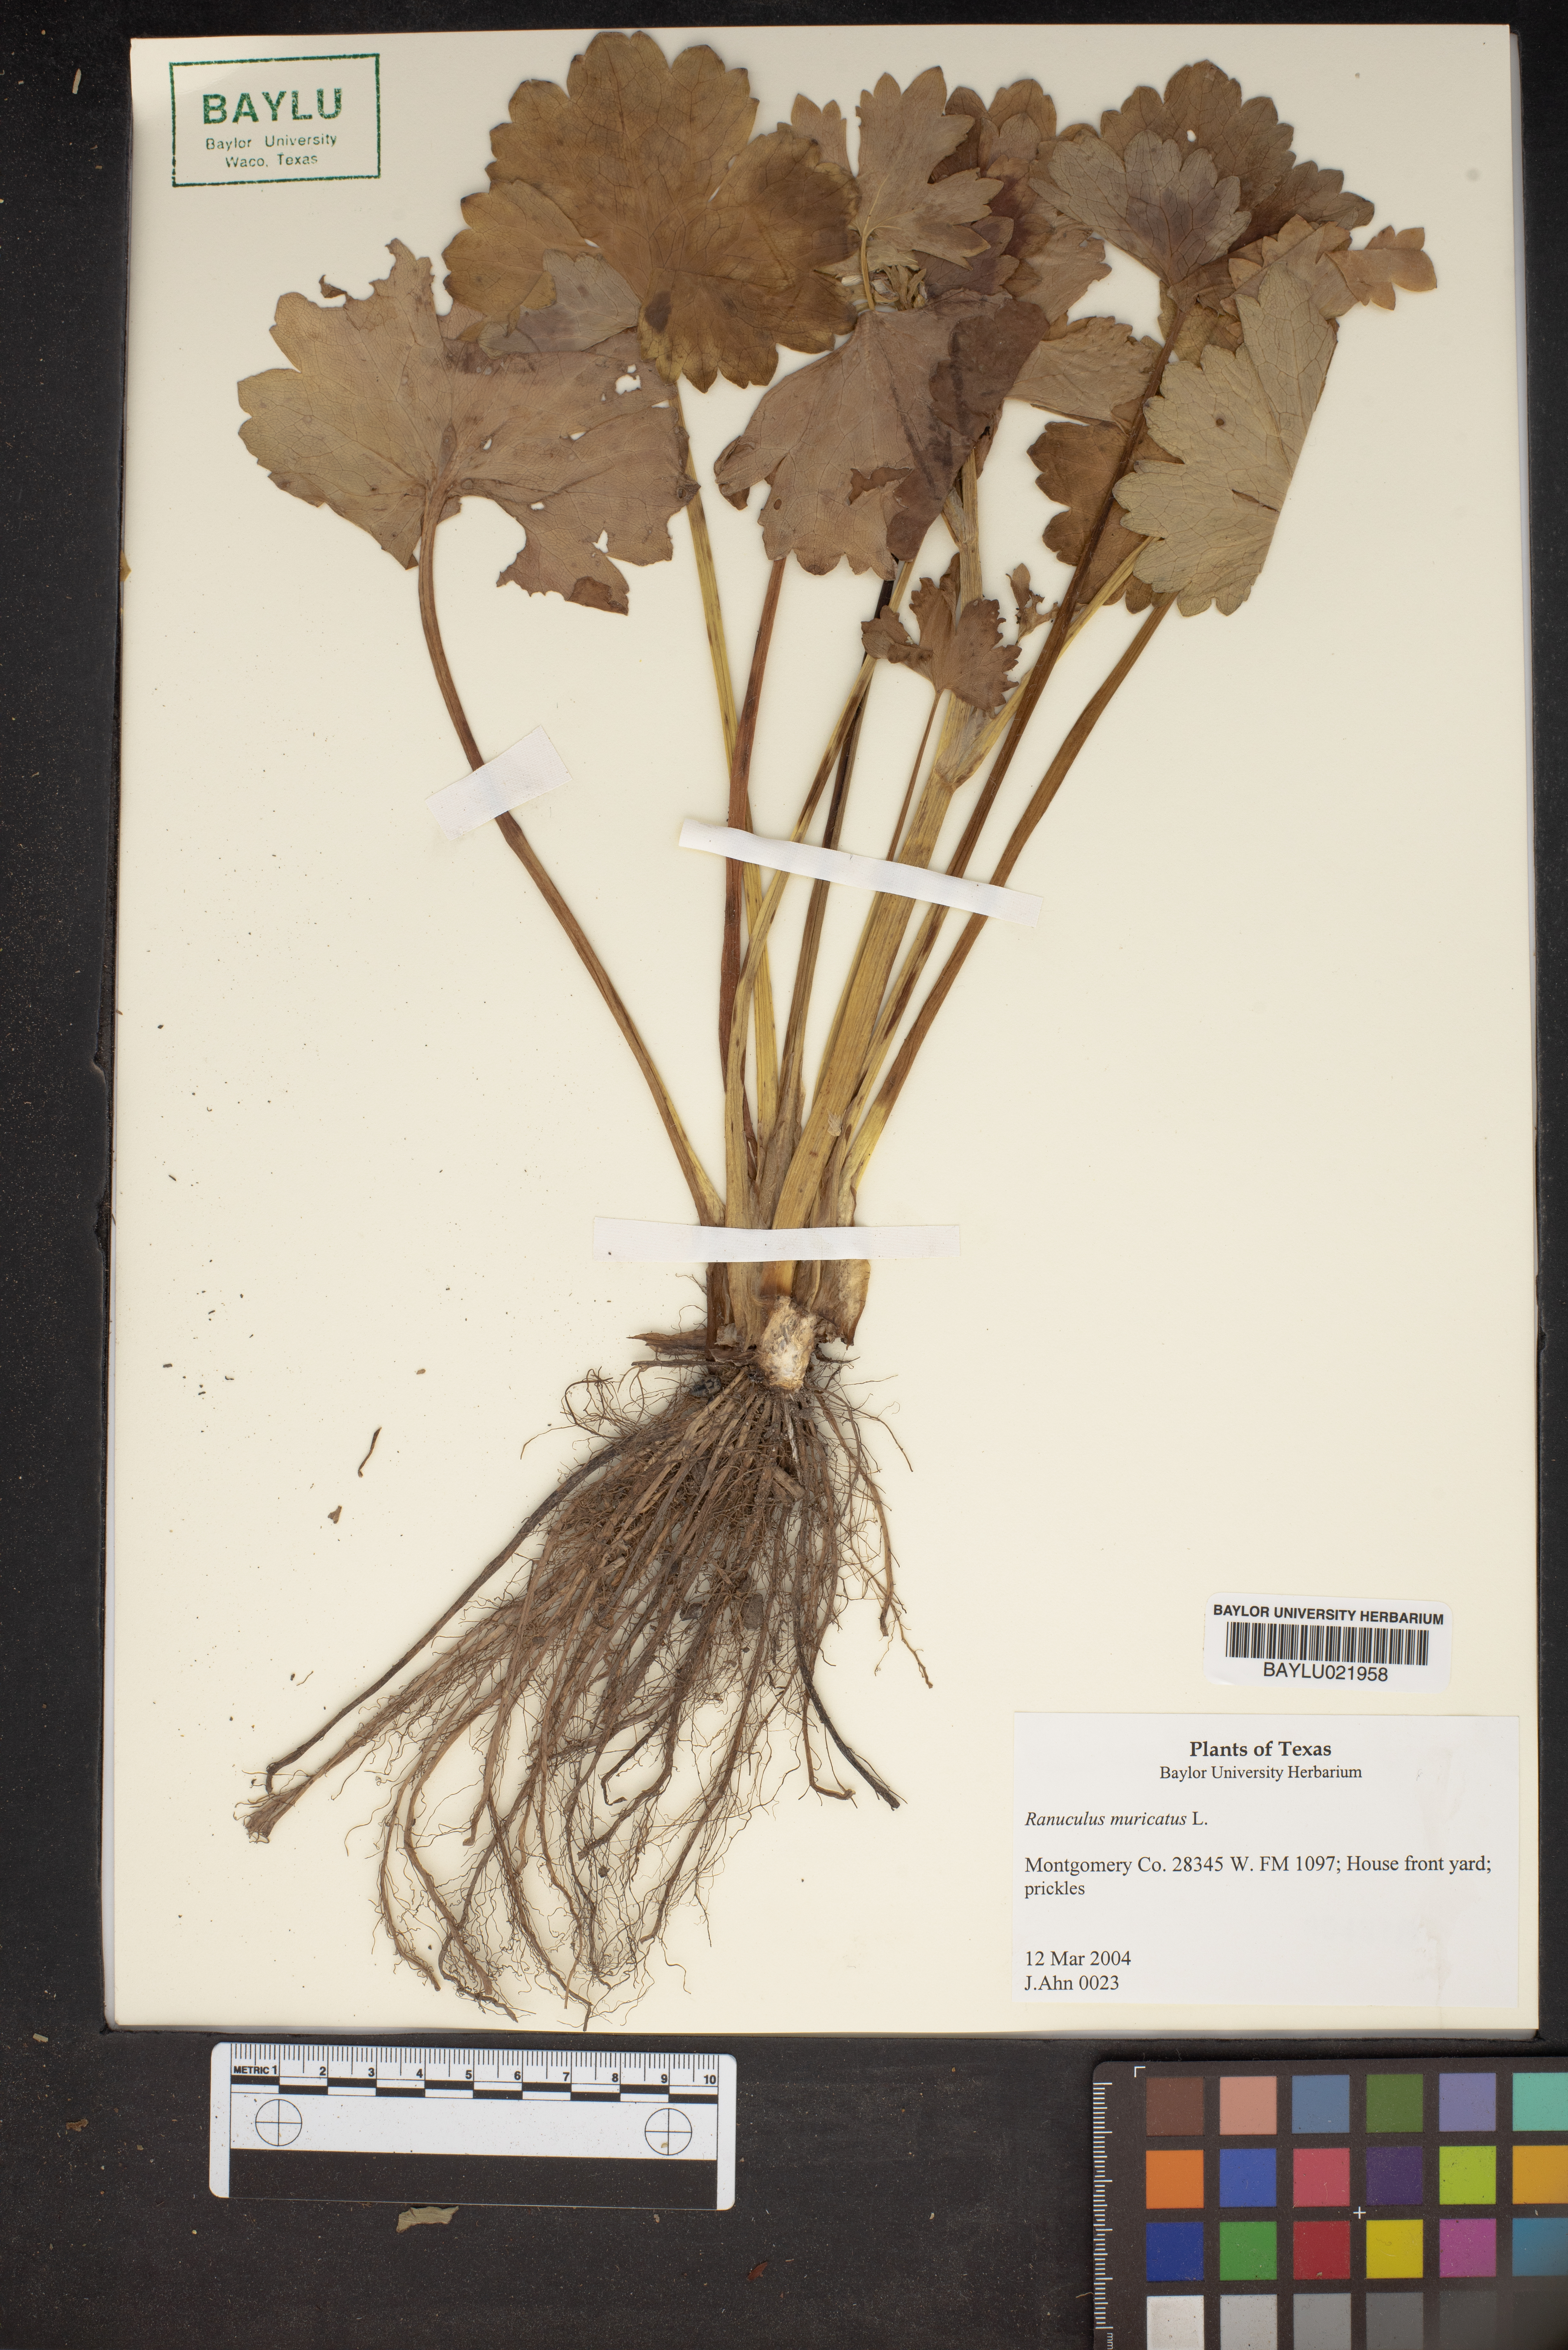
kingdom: Plantae
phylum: Tracheophyta
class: Magnoliopsida
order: Ranunculales
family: Ranunculaceae
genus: Ranunculus
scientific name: Ranunculus muricatus
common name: Rough-fruited buttercup
